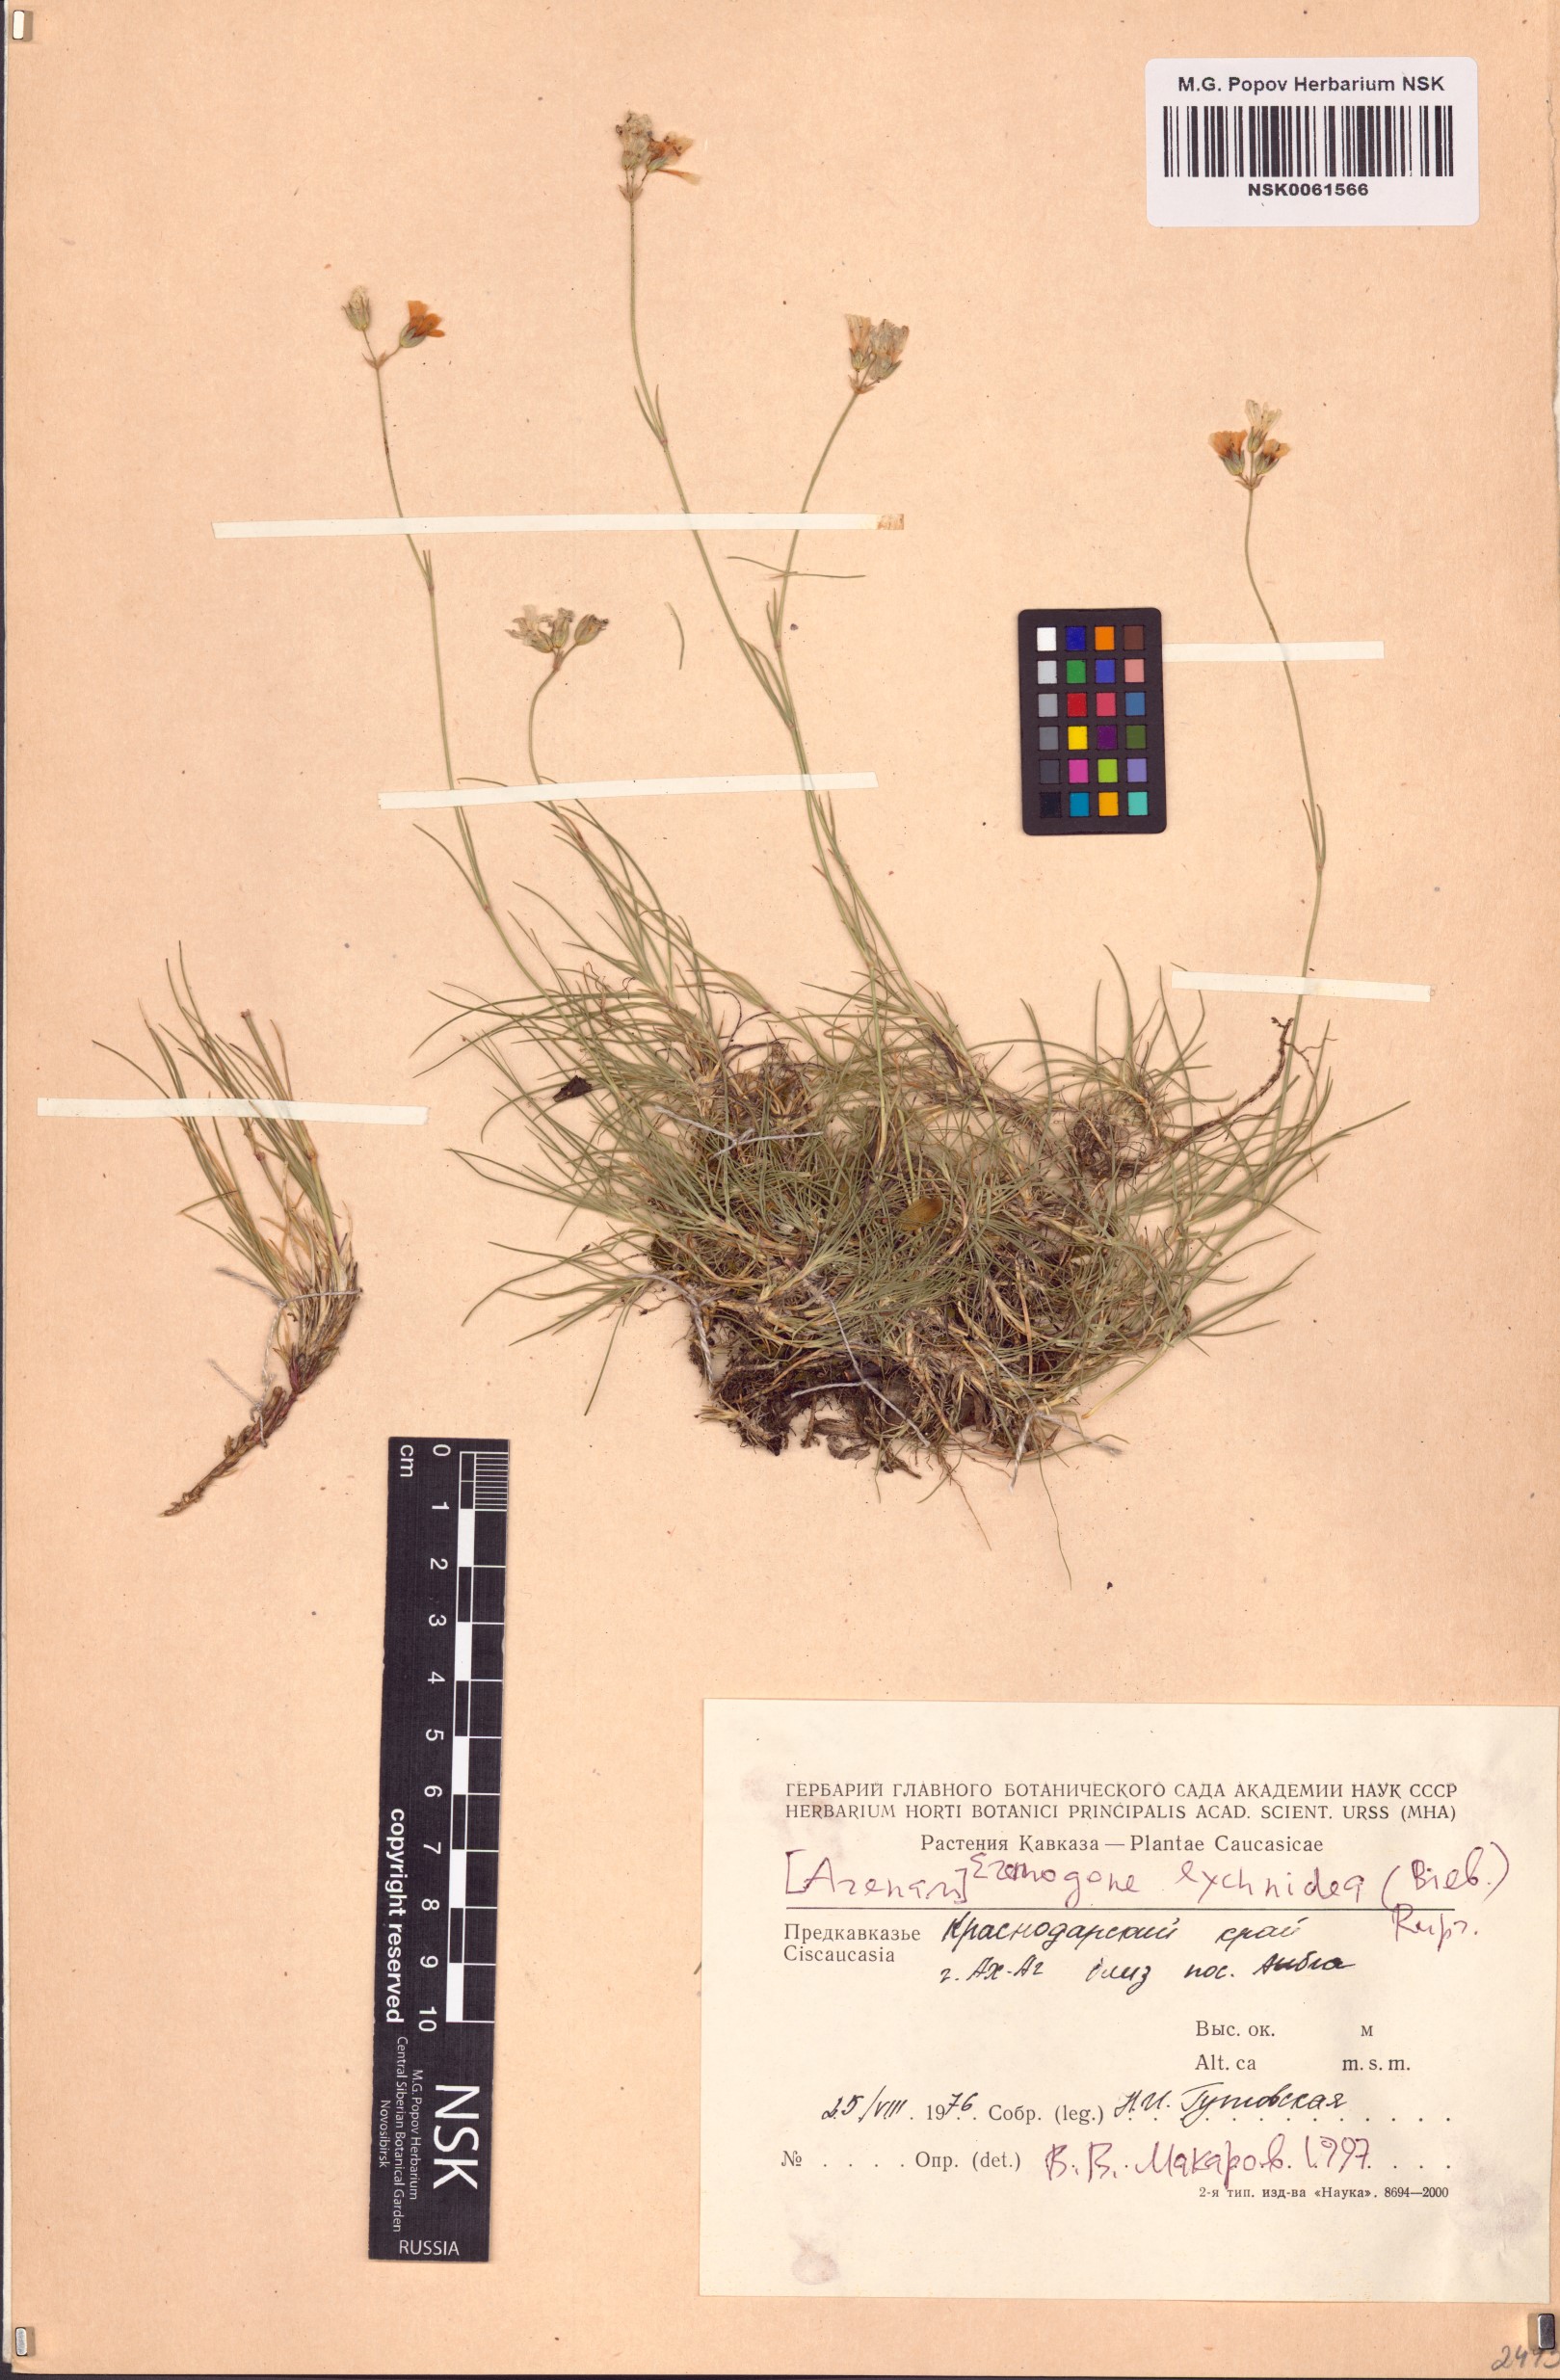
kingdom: Plantae
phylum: Tracheophyta
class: Magnoliopsida
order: Caryophyllales
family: Caryophyllaceae
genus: Eremogone
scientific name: Eremogone lychnidea
